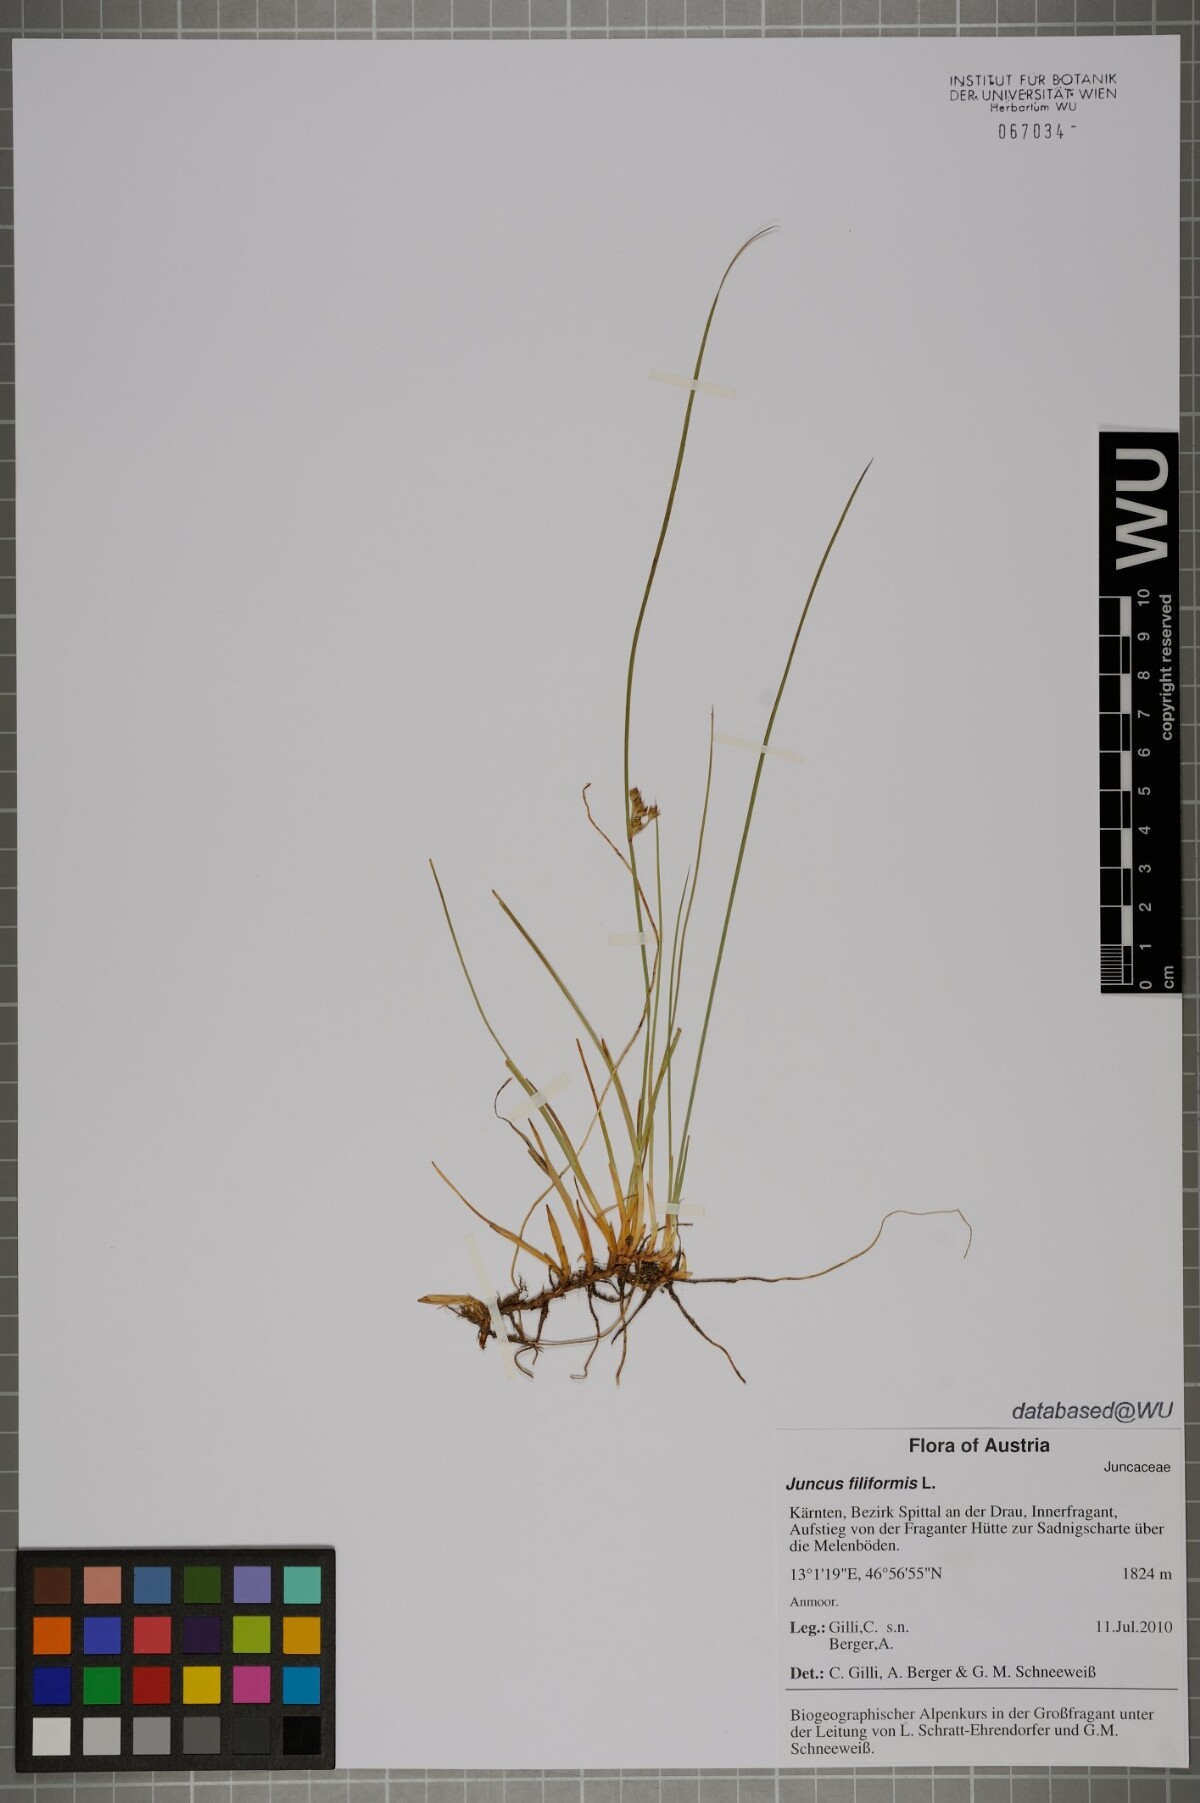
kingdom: Plantae
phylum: Tracheophyta
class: Liliopsida
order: Poales
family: Juncaceae
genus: Juncus
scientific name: Juncus filiformis
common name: Thread rush
